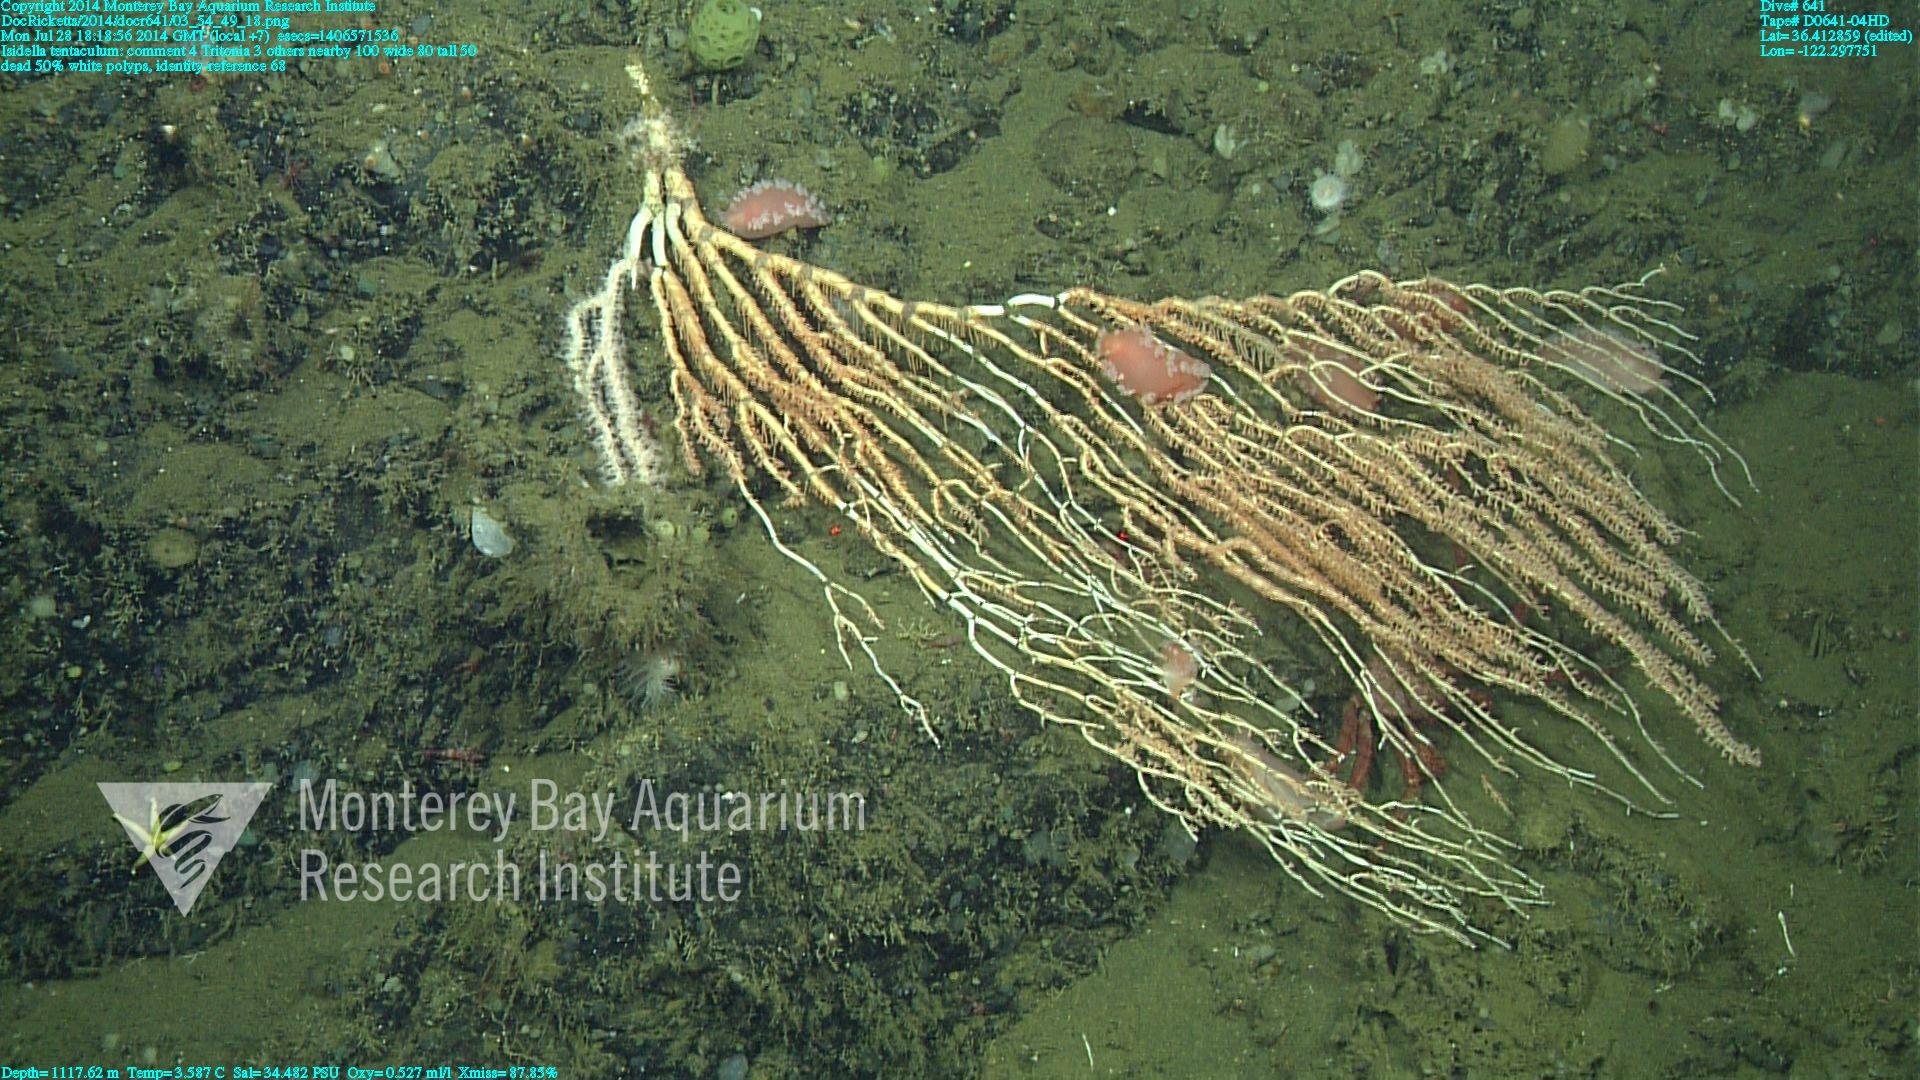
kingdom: Animalia
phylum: Cnidaria
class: Anthozoa
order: Scleralcyonacea
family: Keratoisididae
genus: Isidella
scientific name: Isidella tentaculum
